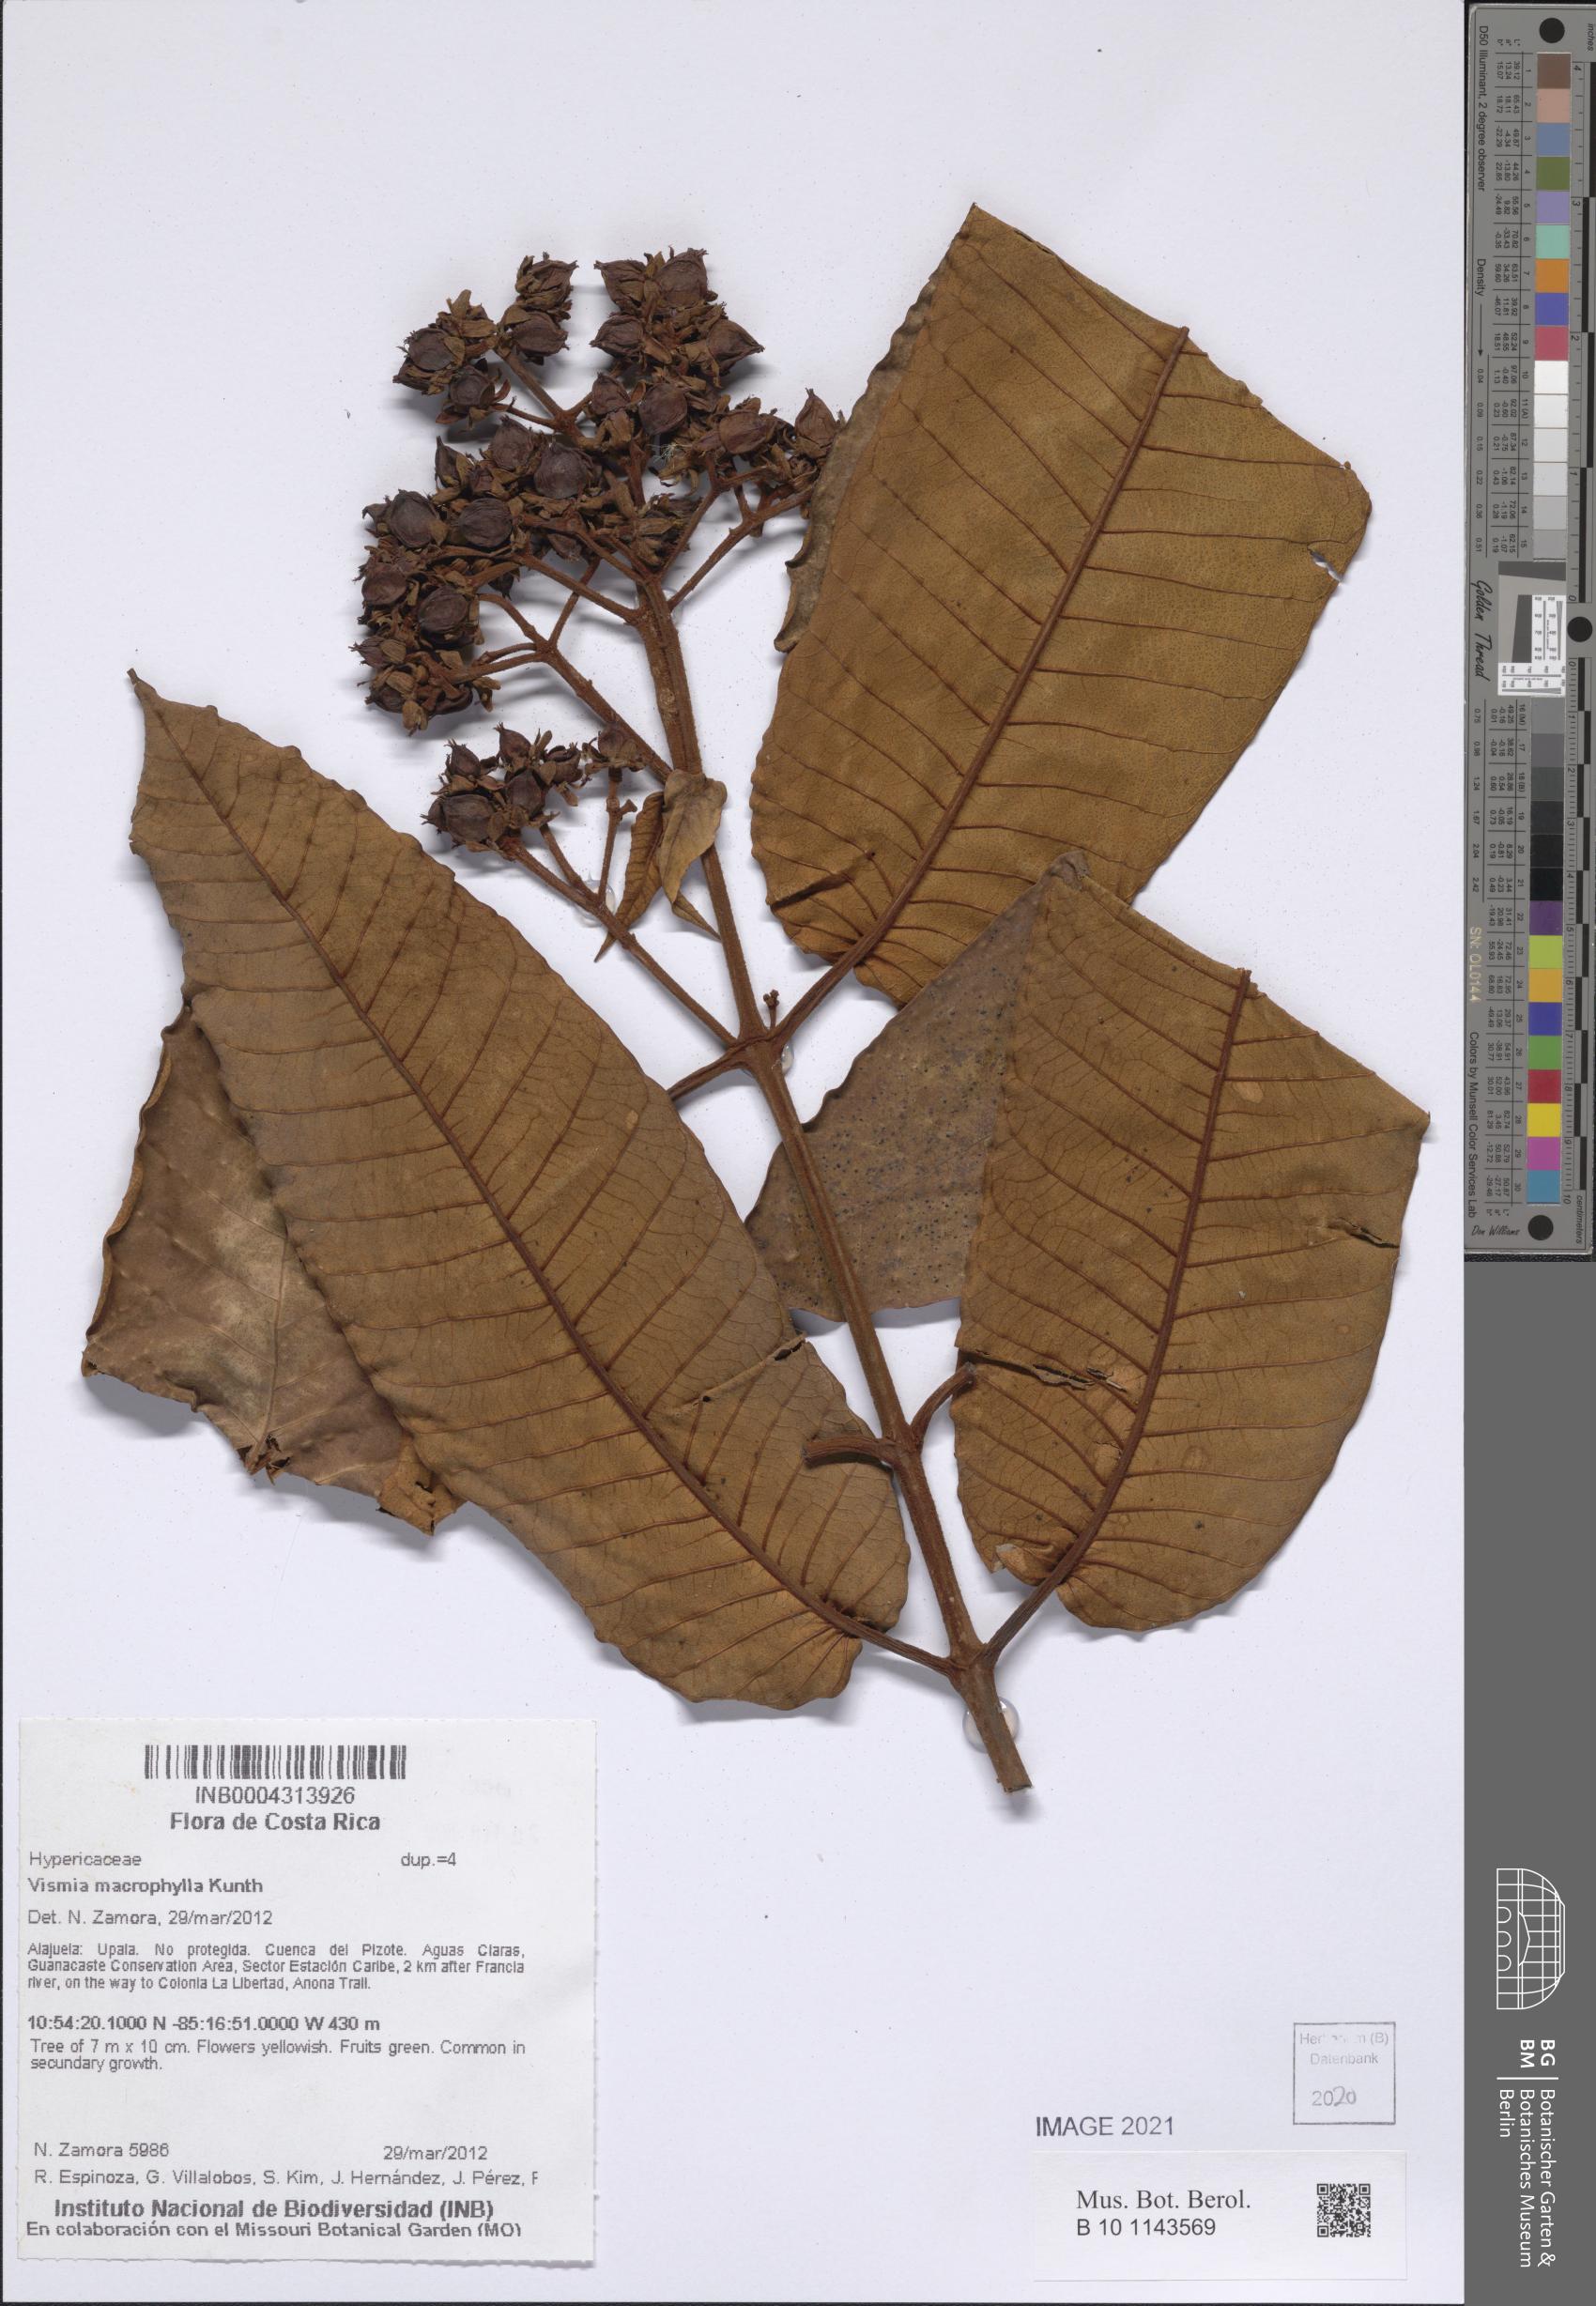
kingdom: Plantae
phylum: Tracheophyta
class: Magnoliopsida
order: Malpighiales
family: Hypericaceae
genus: Vismia
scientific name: Vismia macrophylla
